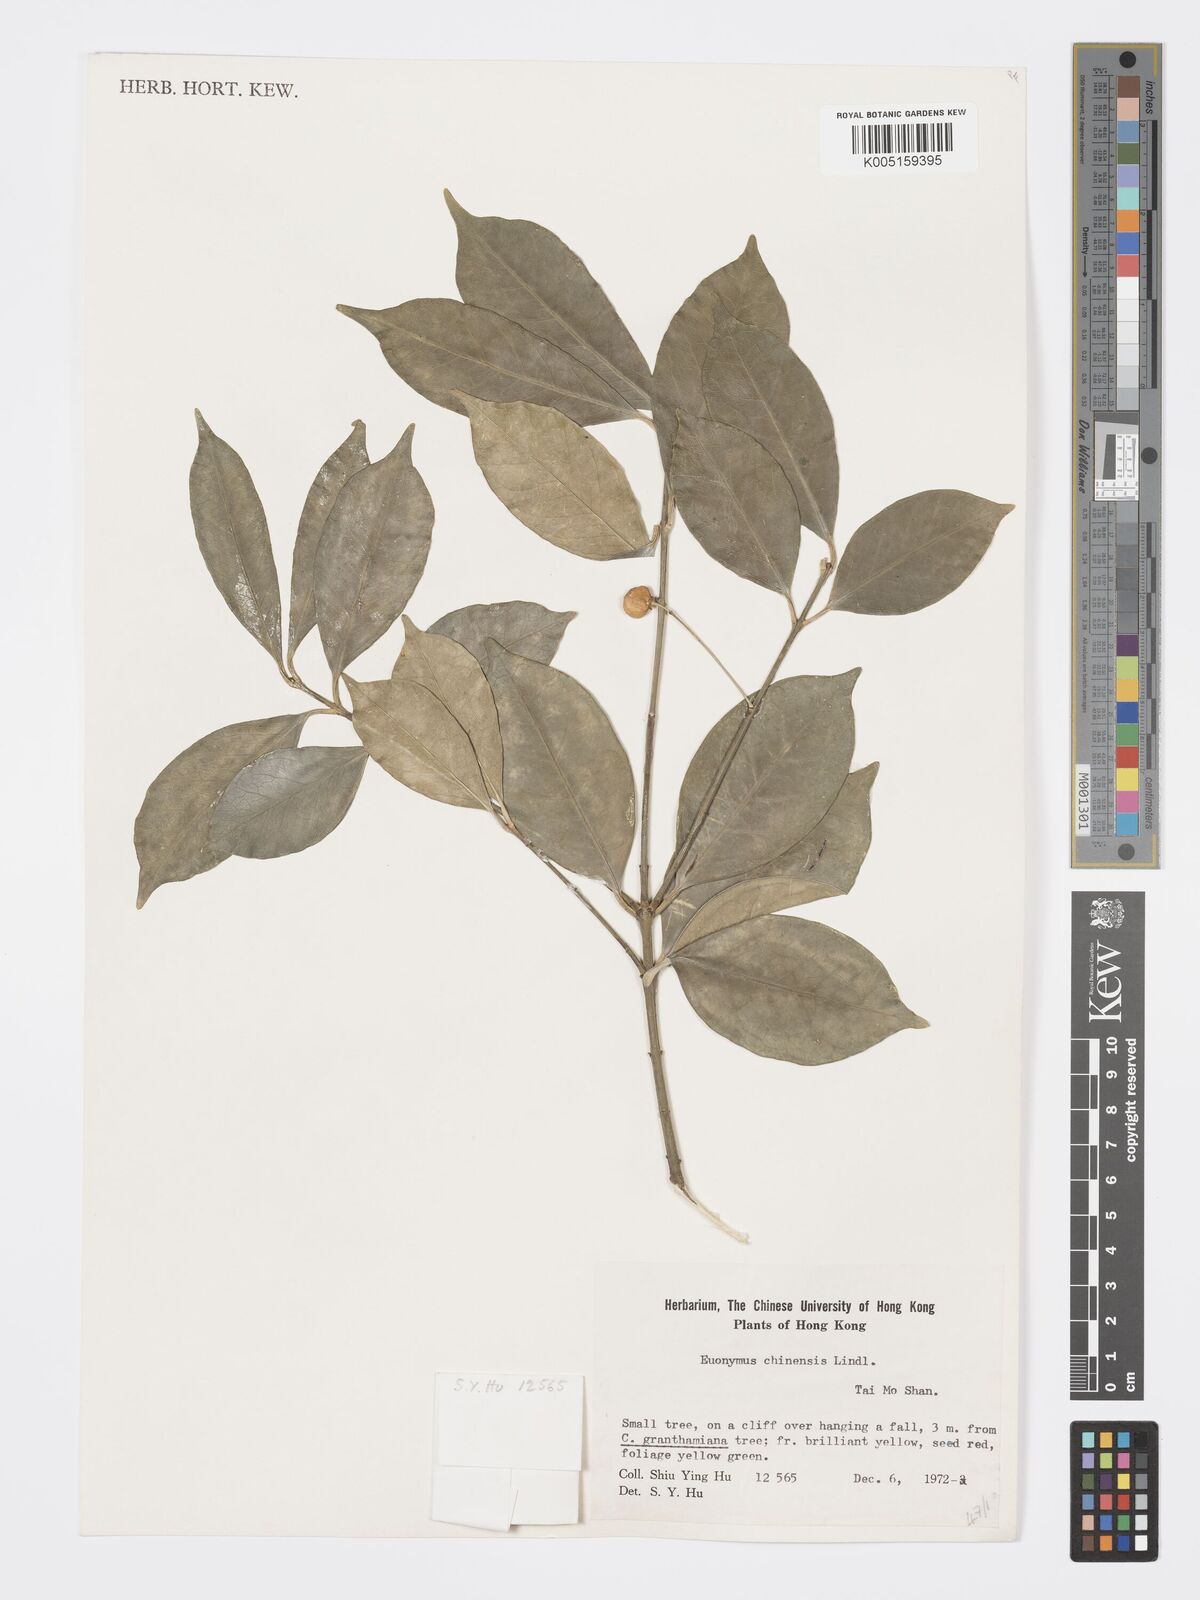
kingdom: Plantae
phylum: Tracheophyta
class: Magnoliopsida
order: Celastrales
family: Celastraceae
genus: Euonymus
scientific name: Euonymus nitidus
